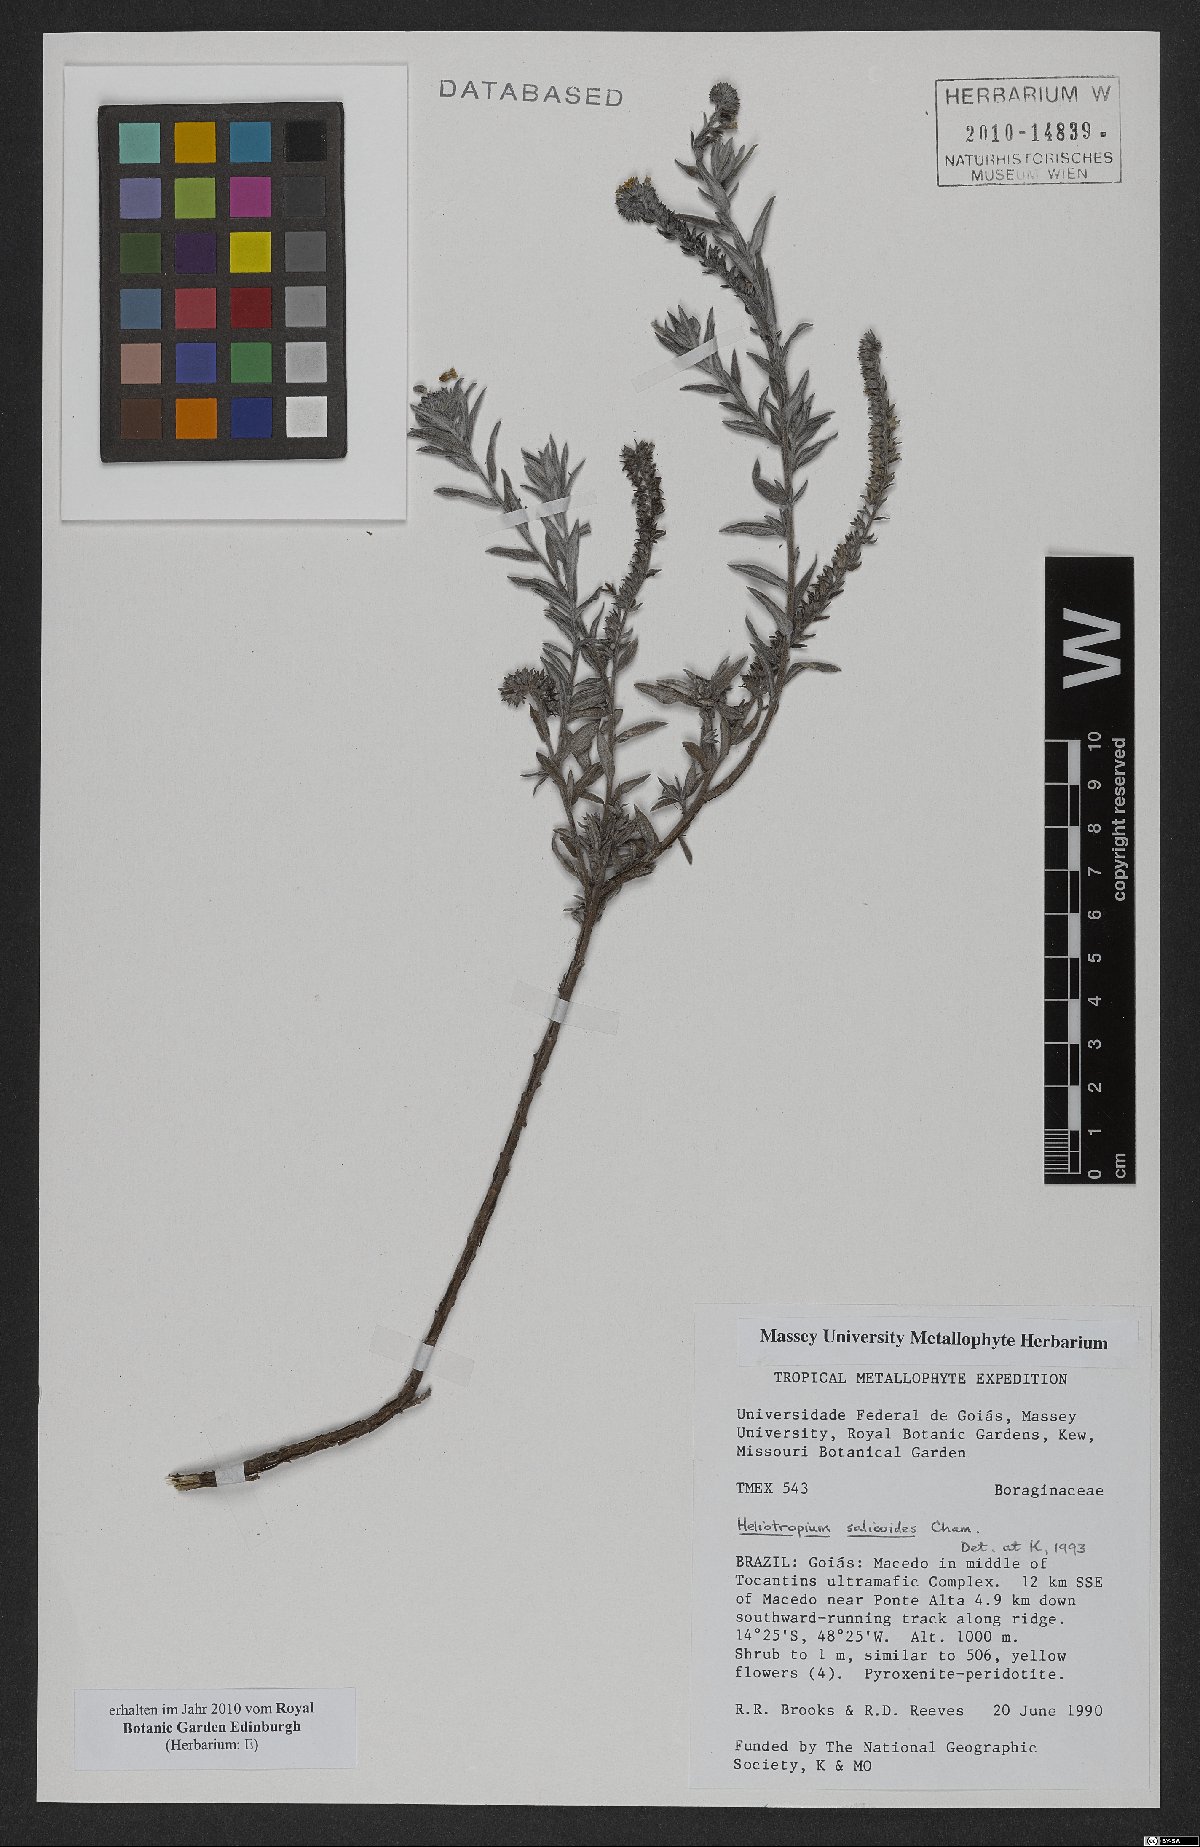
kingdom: Plantae
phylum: Tracheophyta
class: Magnoliopsida
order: Boraginales
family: Heliotropiaceae
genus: Euploca
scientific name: Euploca salicoides
